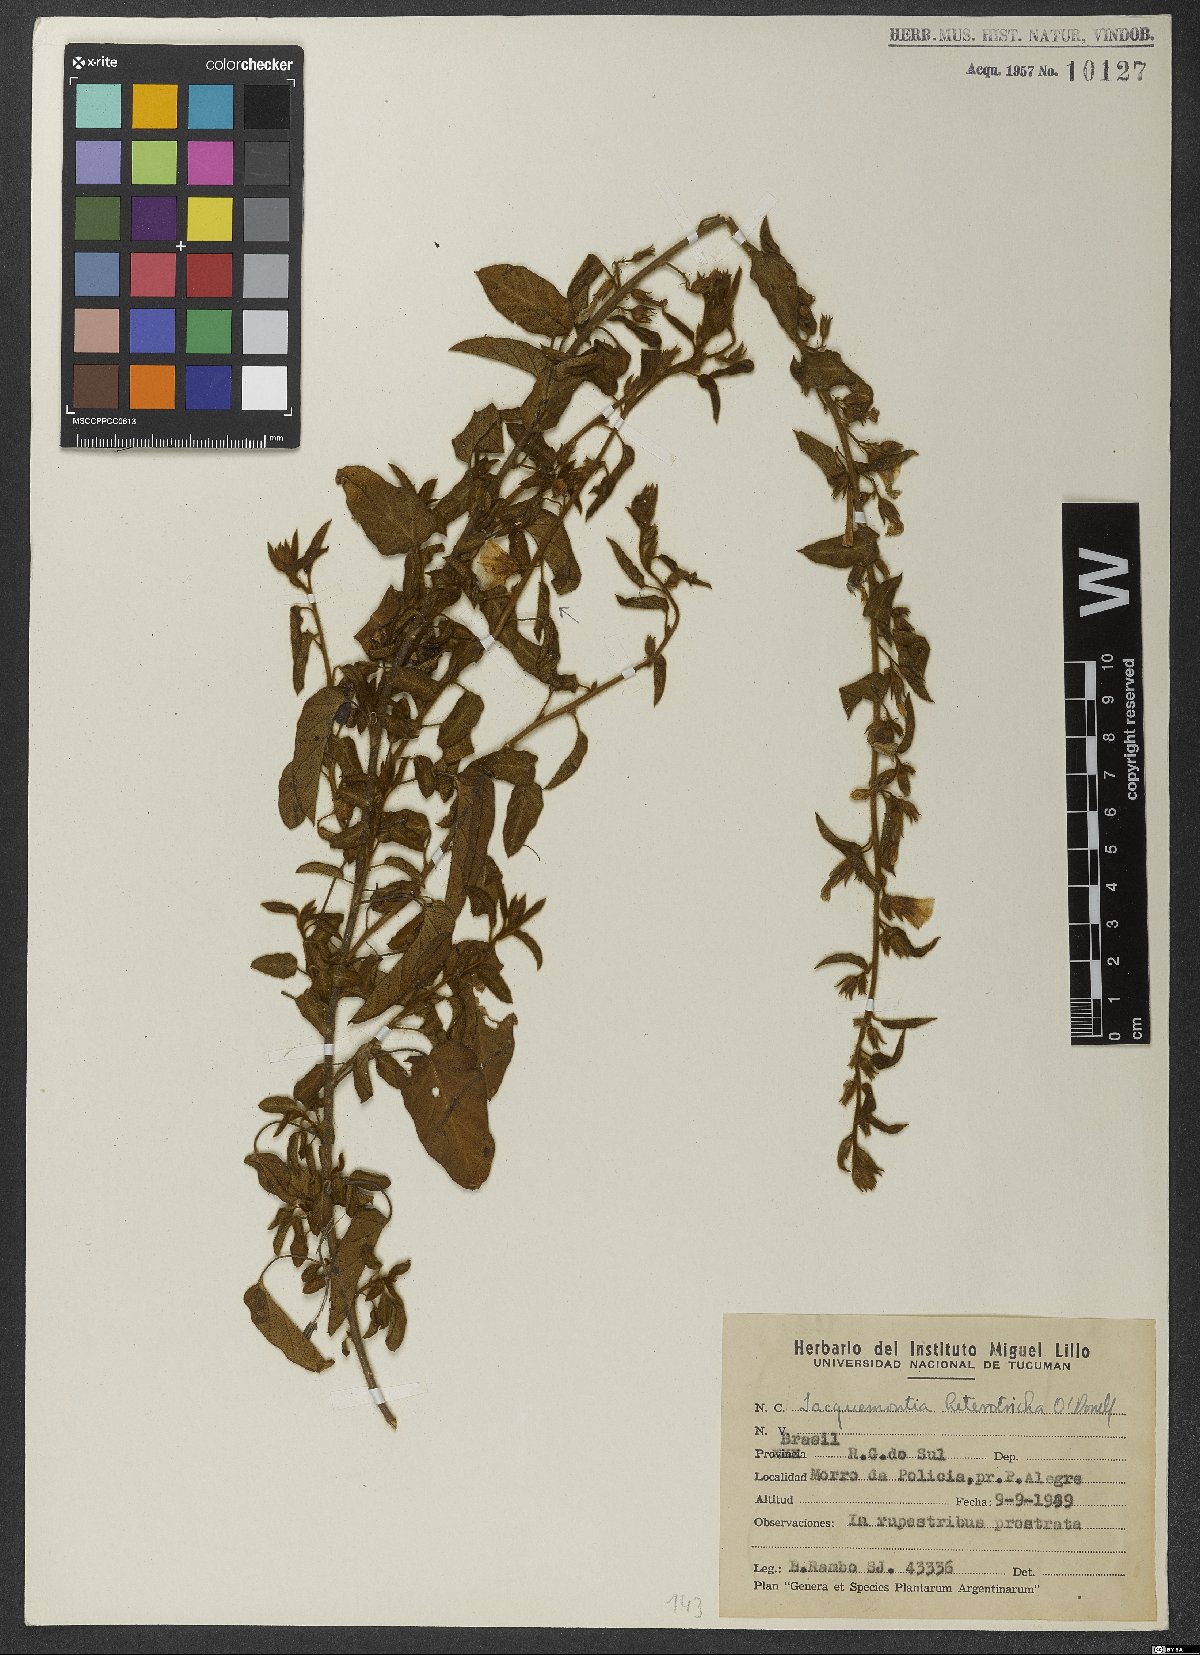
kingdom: Plantae
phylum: Tracheophyta
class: Magnoliopsida
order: Solanales
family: Convolvulaceae
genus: Jacquemontia
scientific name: Jacquemontia heterotricha
